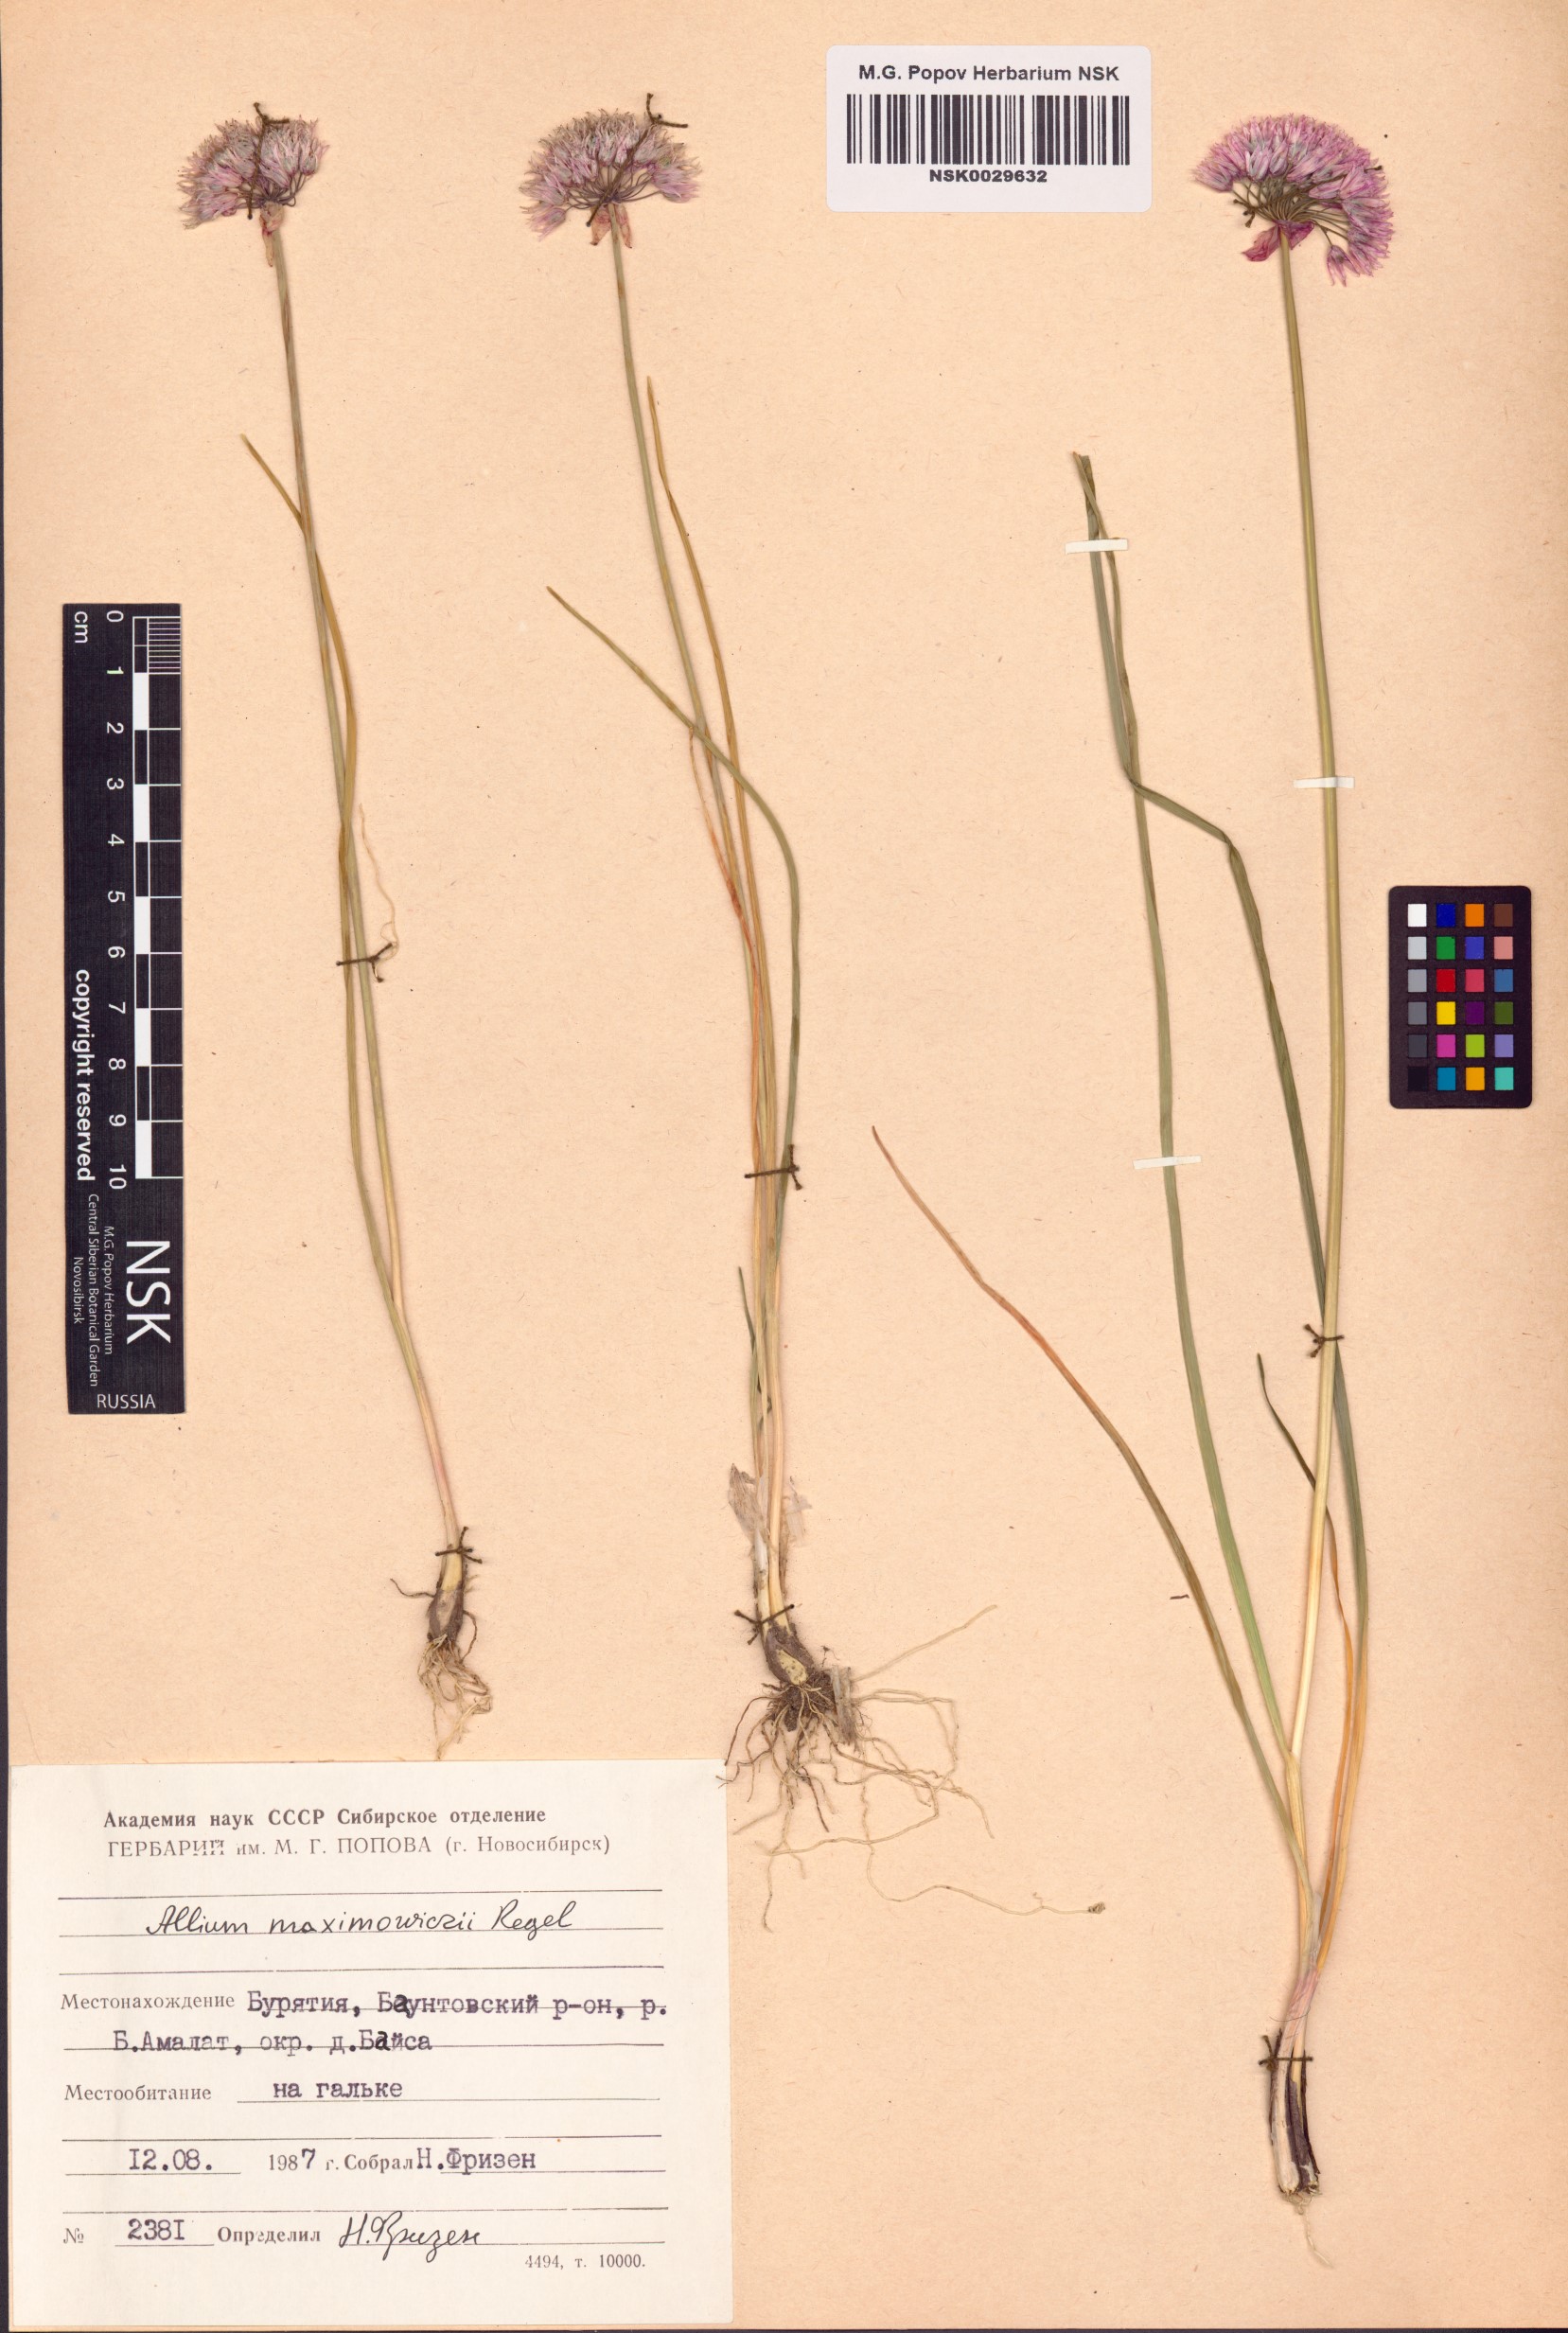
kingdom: Plantae
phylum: Tracheophyta
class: Liliopsida
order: Asparagales
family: Amaryllidaceae
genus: Allium
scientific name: Allium maximowiczii
